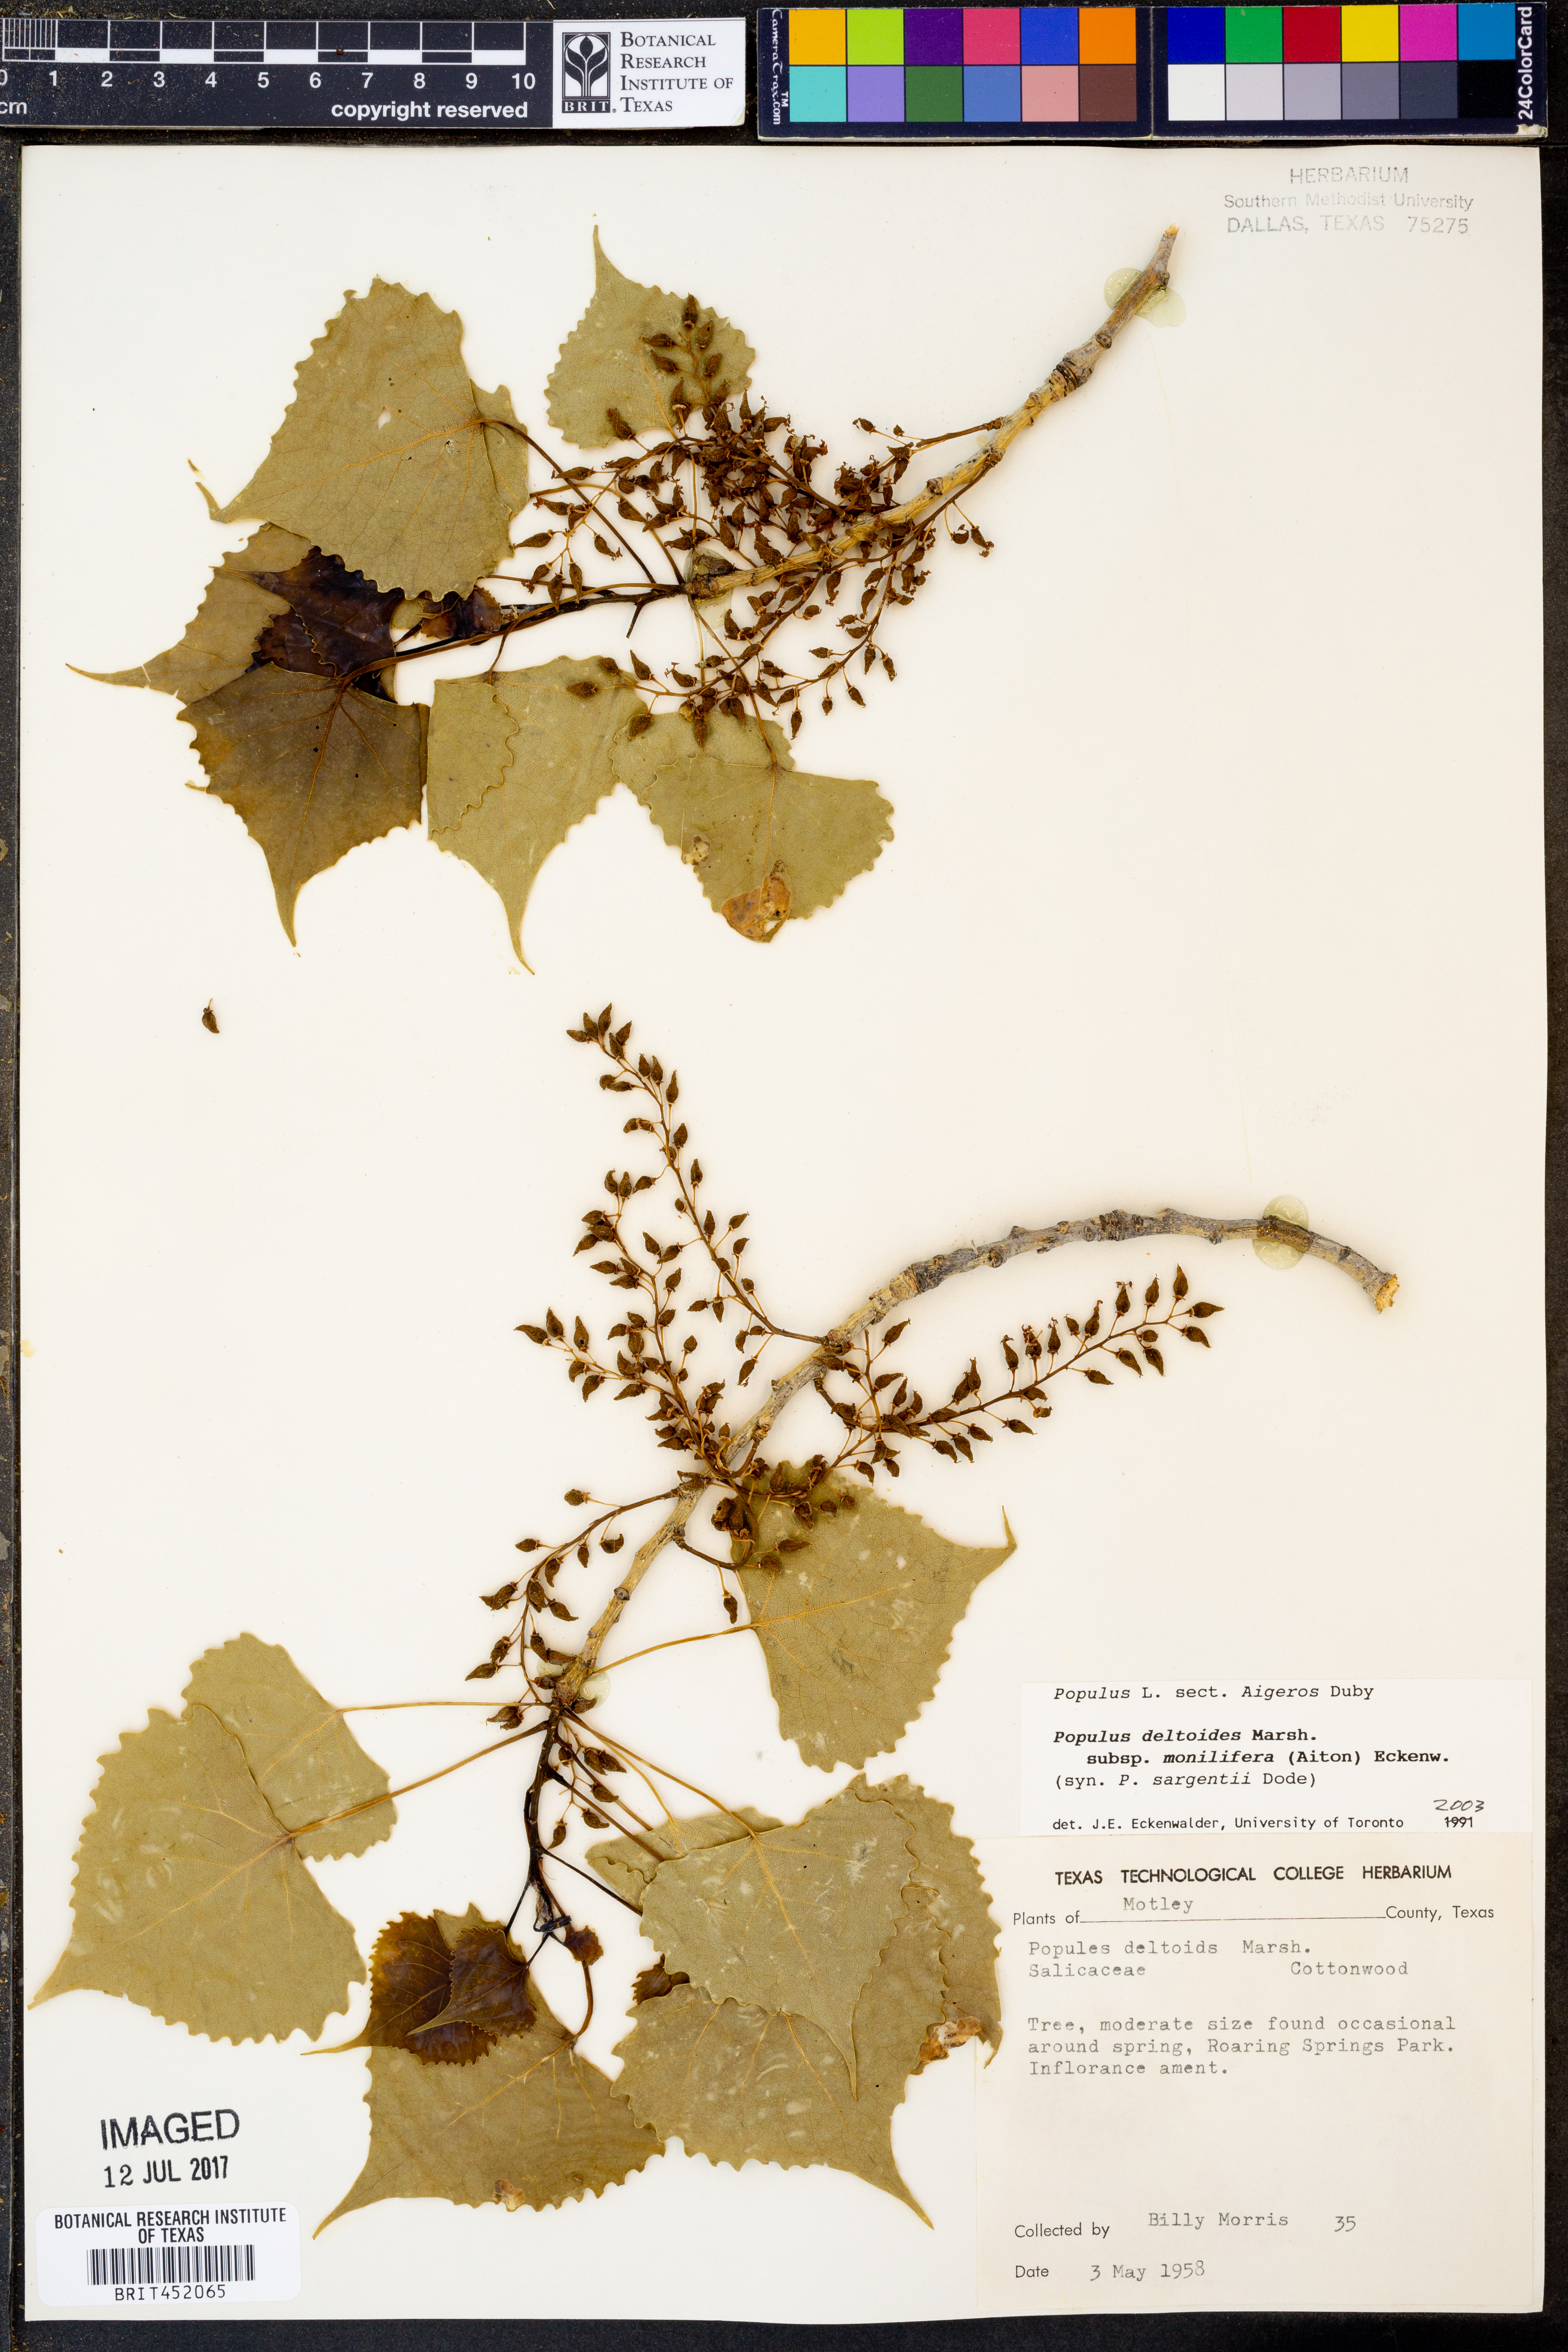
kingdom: Plantae
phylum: Tracheophyta
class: Magnoliopsida
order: Malpighiales
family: Salicaceae
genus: Populus
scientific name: Populus deltoides
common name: Eastern cottonwood
